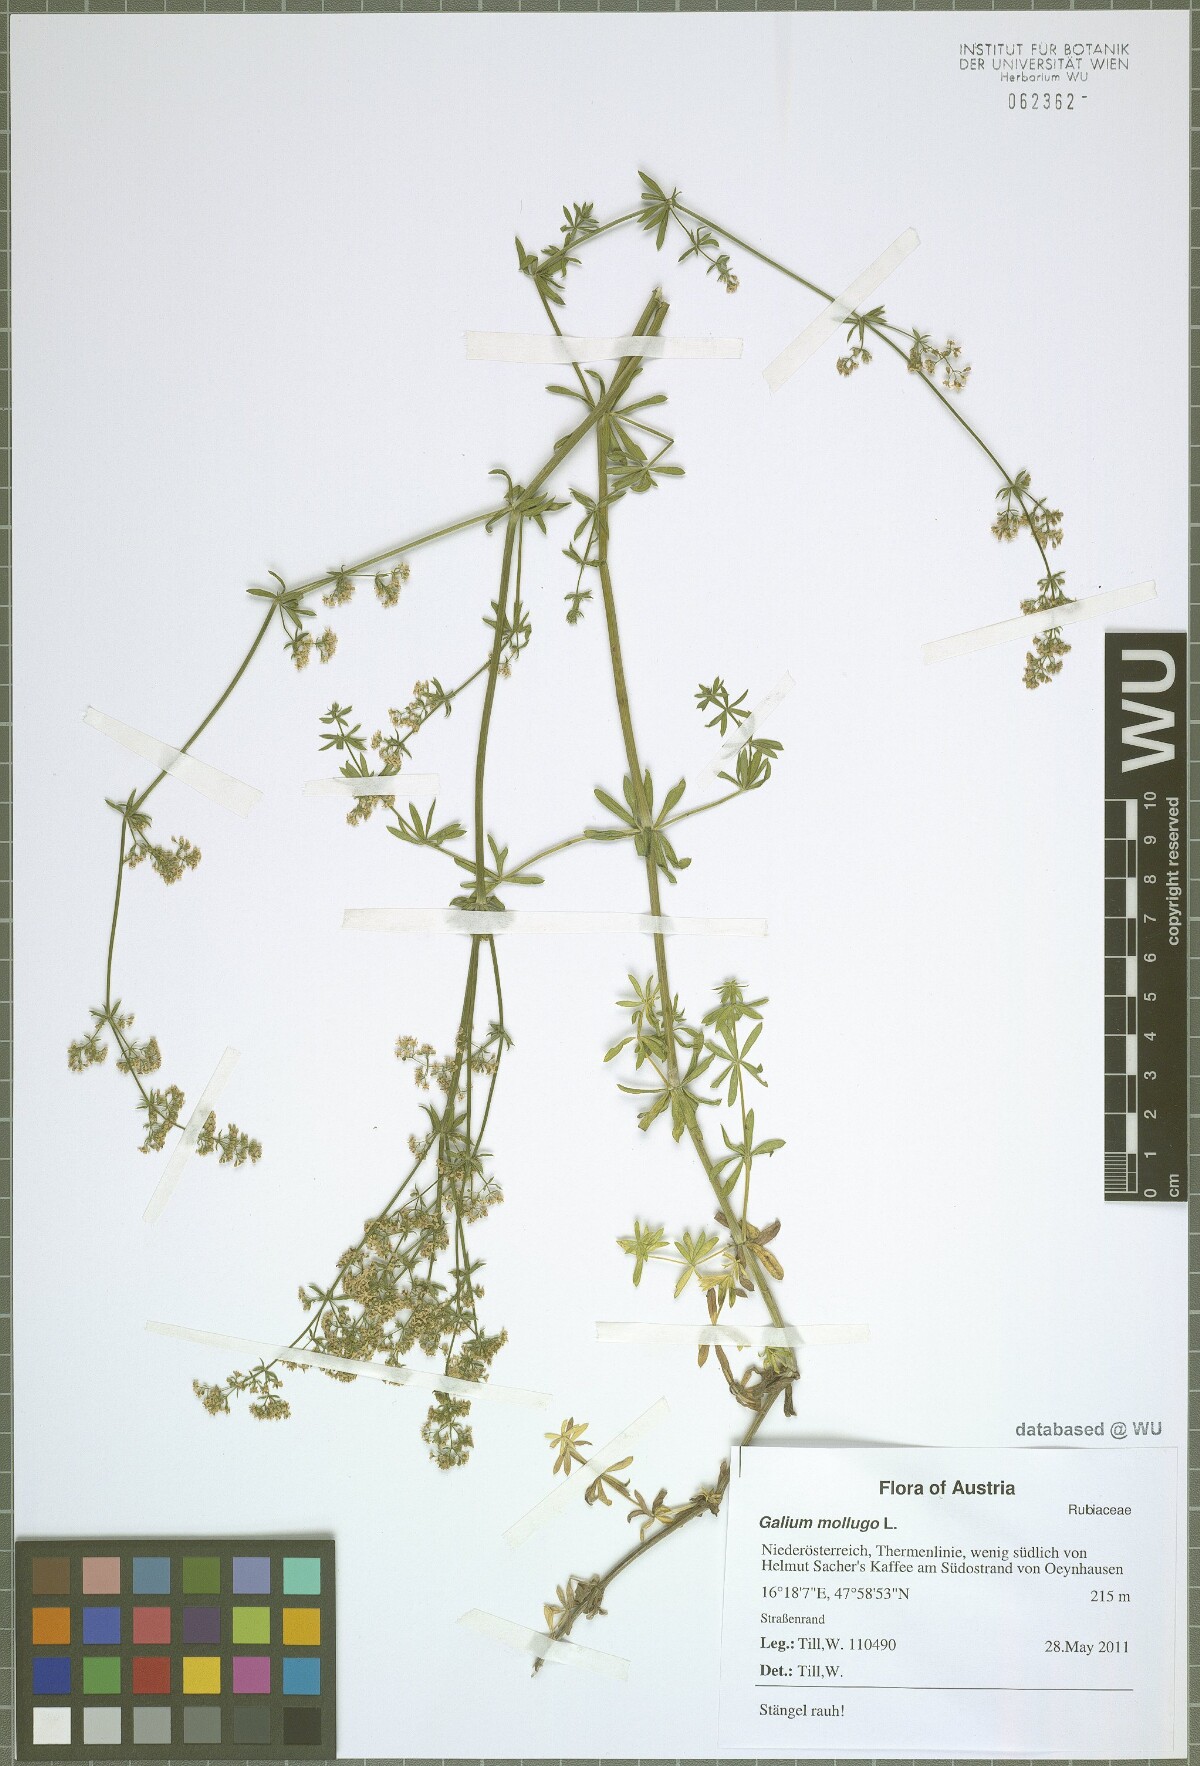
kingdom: Plantae
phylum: Tracheophyta
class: Magnoliopsida
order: Gentianales
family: Rubiaceae
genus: Galium
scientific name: Galium mollugo
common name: Hedge bedstraw
